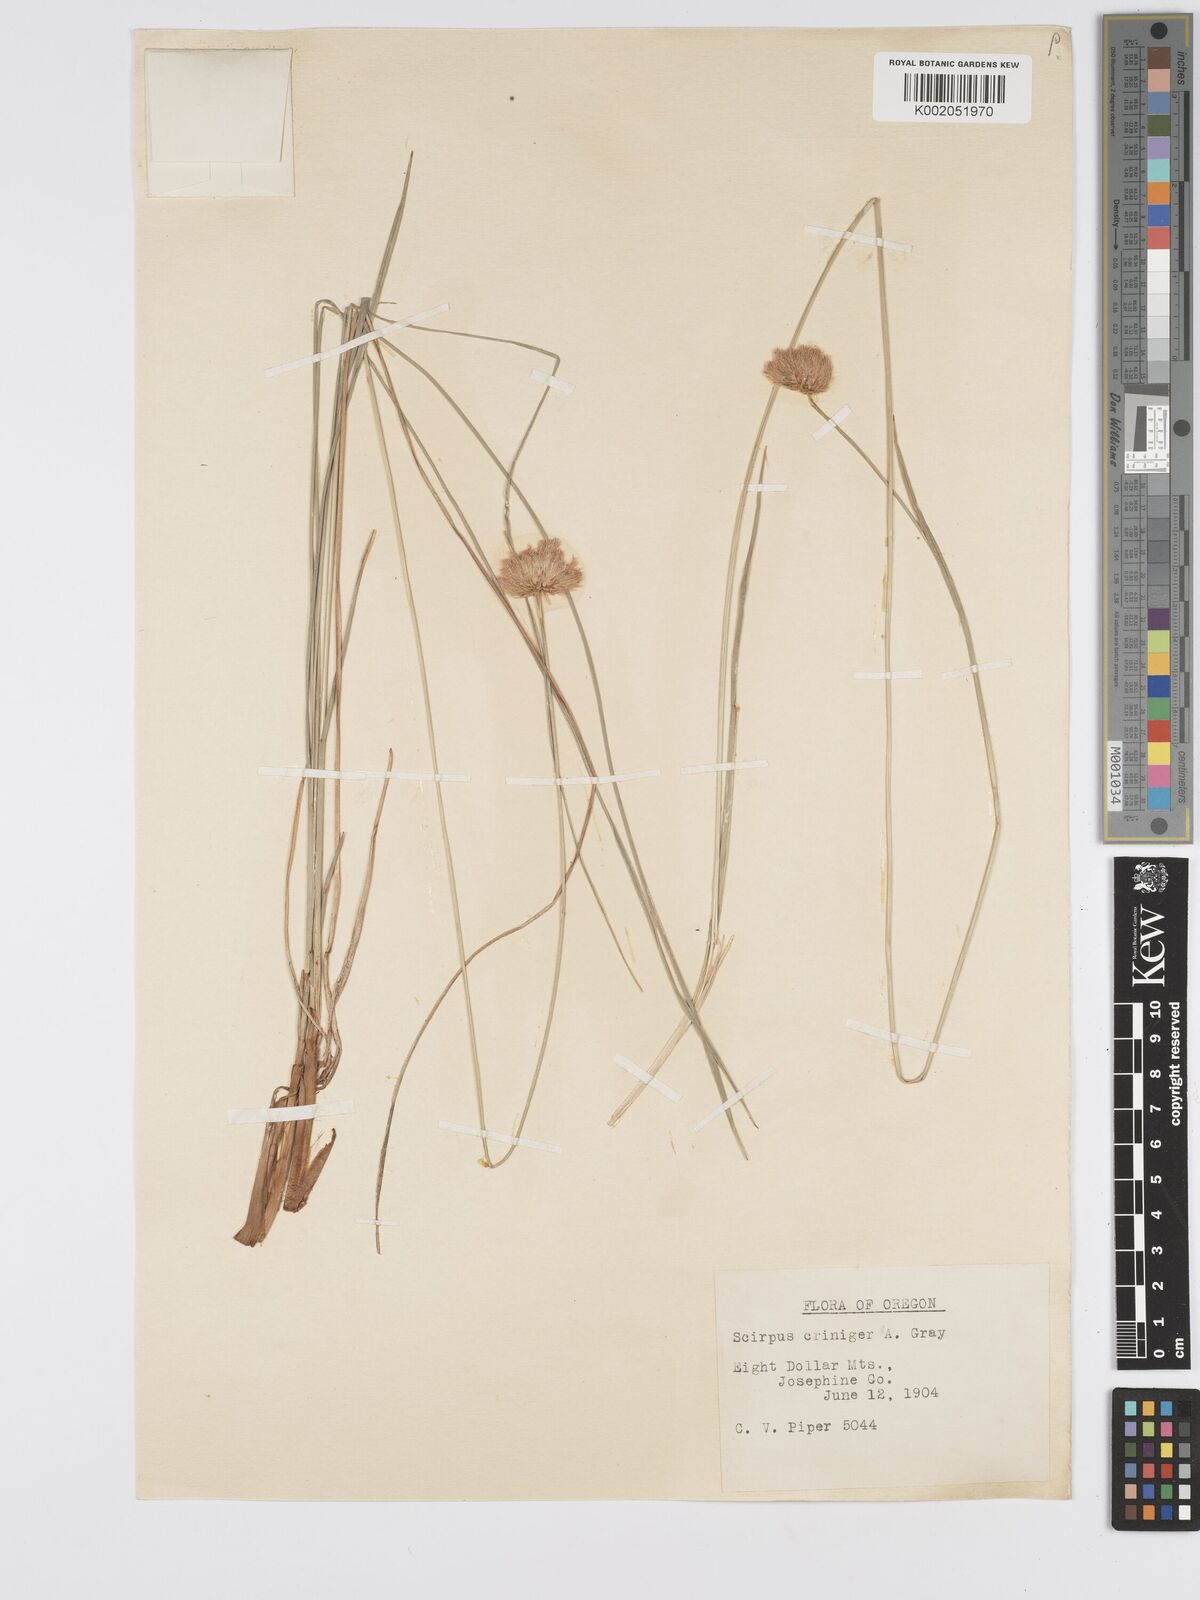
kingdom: Plantae
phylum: Tracheophyta
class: Liliopsida
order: Poales
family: Cyperaceae
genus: Calliscirpus
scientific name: Calliscirpus criniger
